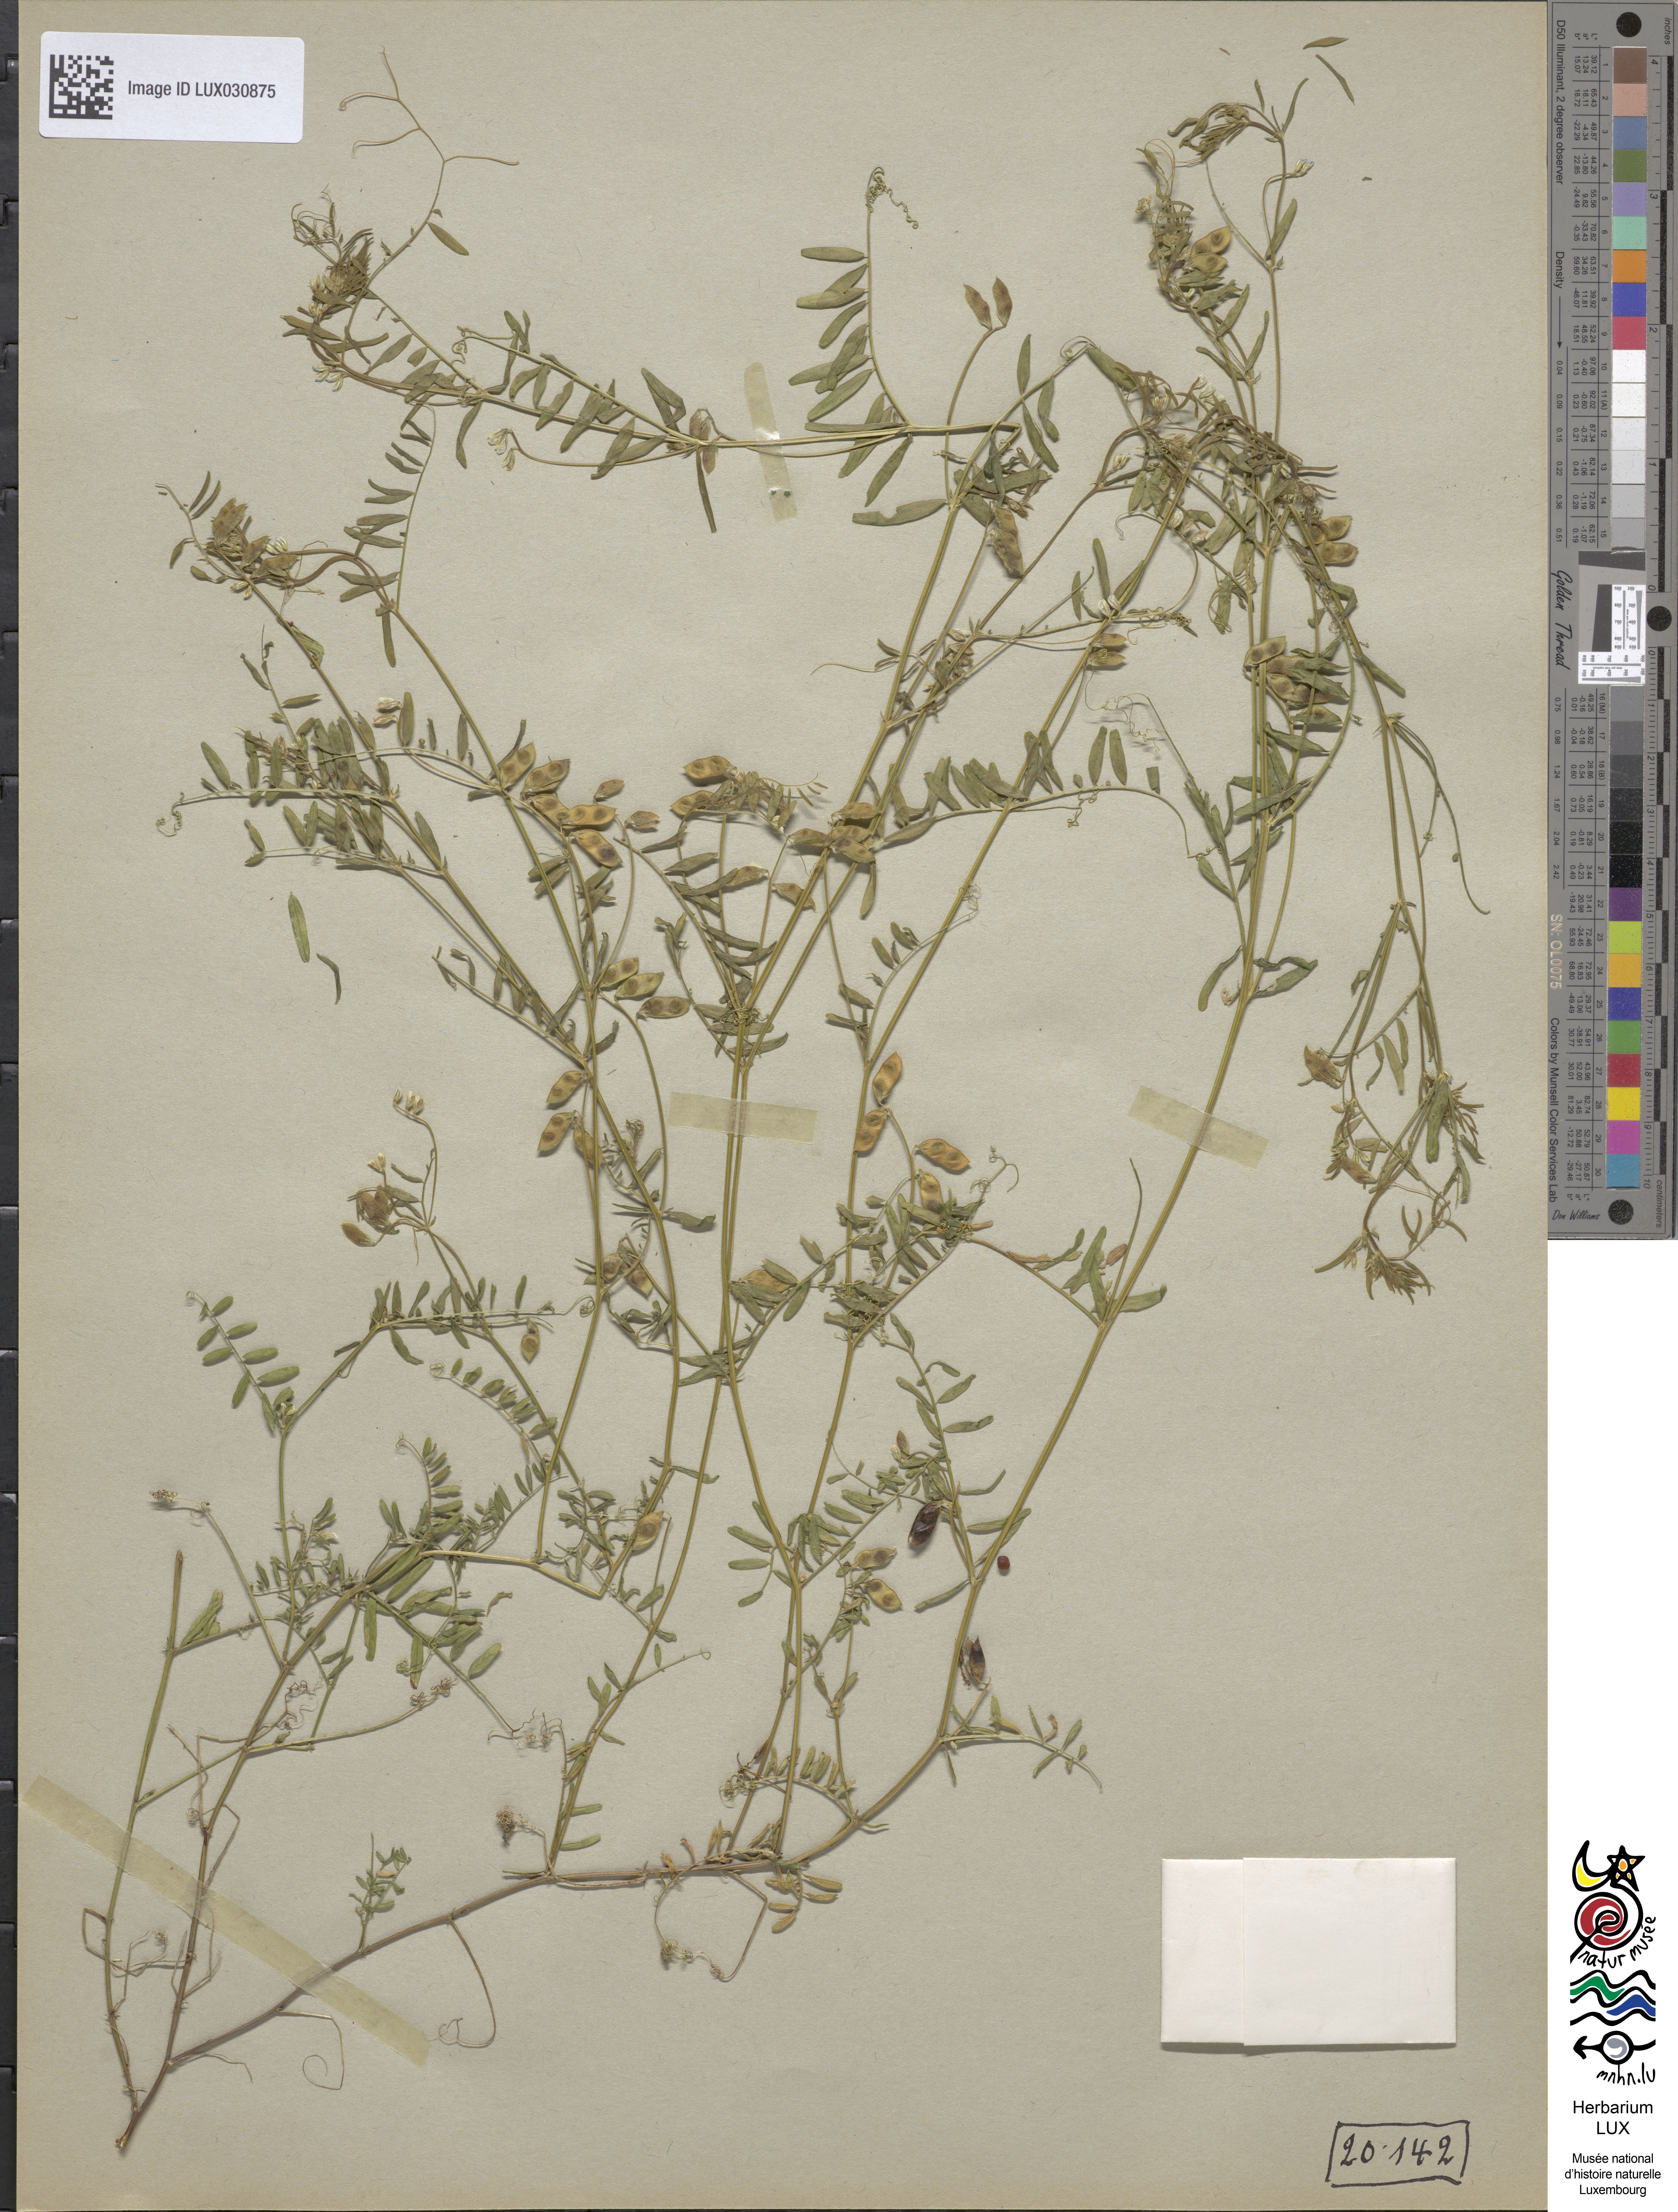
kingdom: Plantae
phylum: Tracheophyta
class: Magnoliopsida
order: Fabales
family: Fabaceae
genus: Vicia
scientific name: Vicia hirsuta
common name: Tiny vetch
